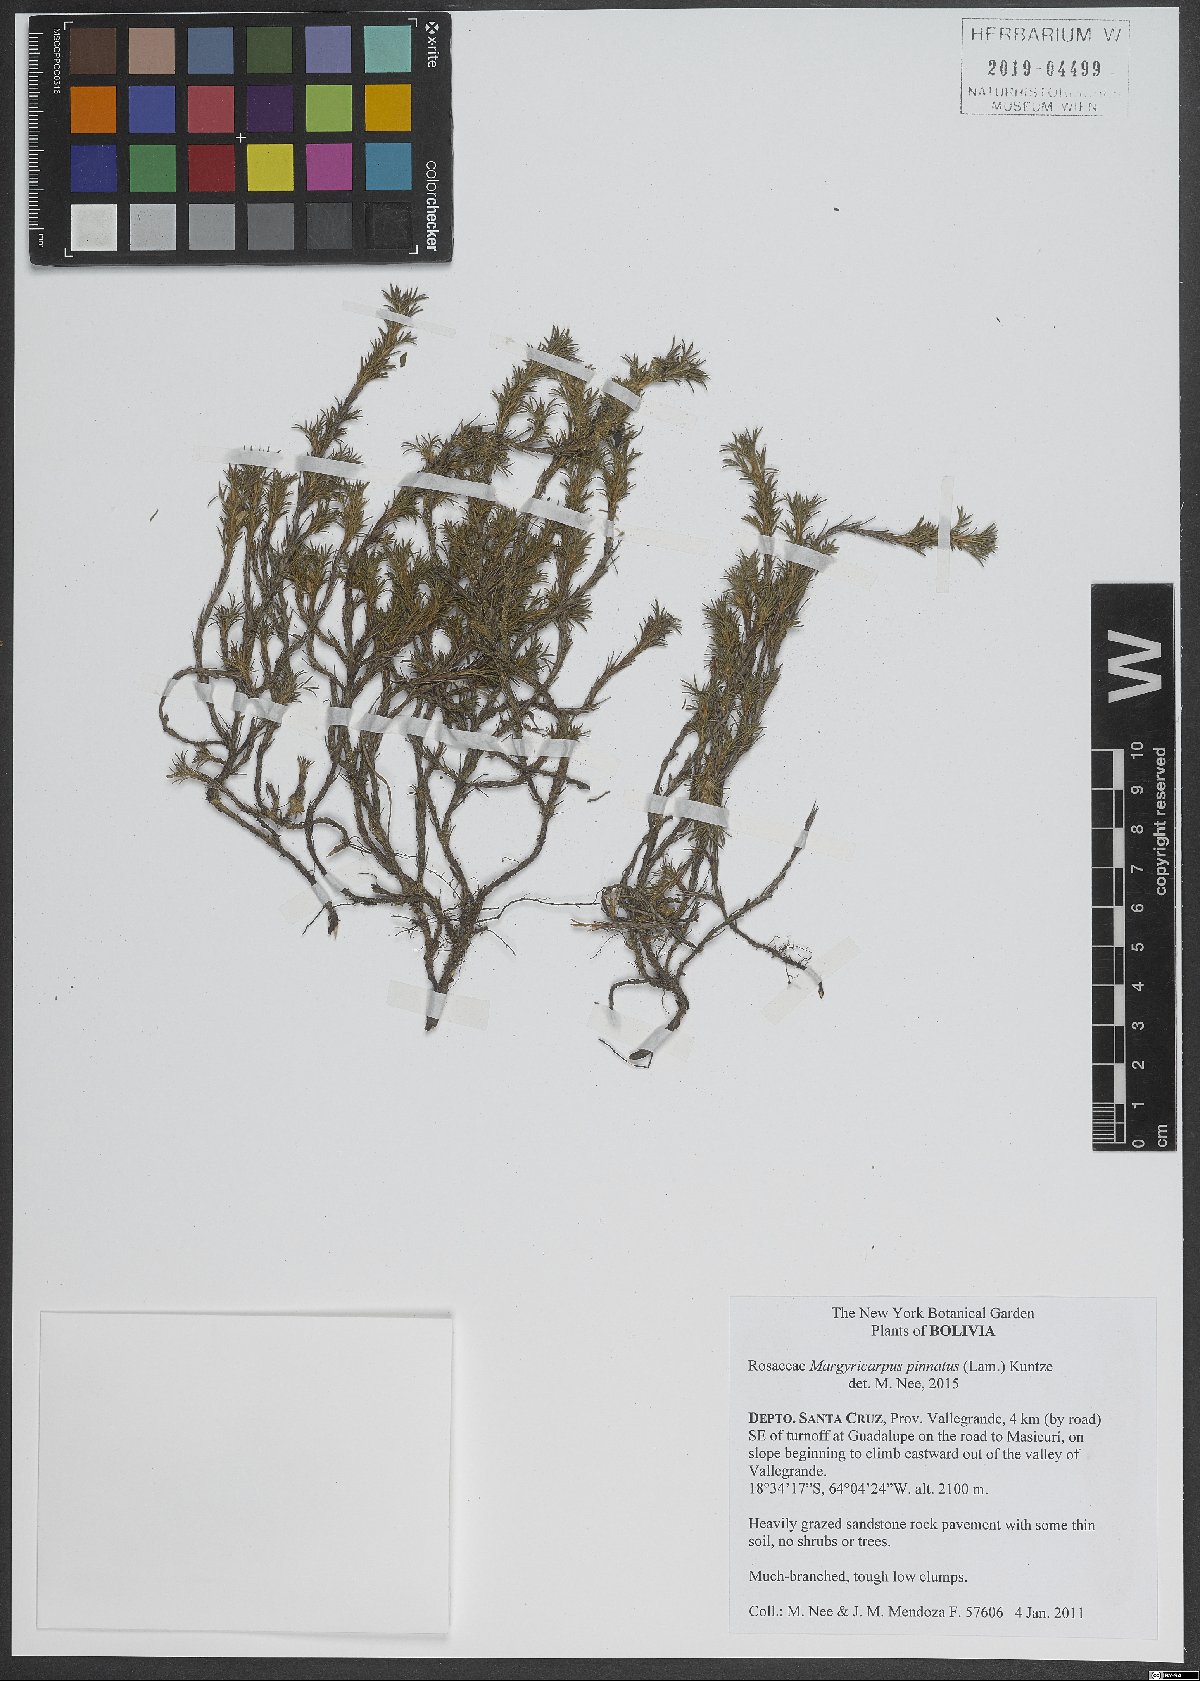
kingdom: Plantae
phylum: Tracheophyta
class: Magnoliopsida
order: Rosales
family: Rosaceae
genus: Margyricarpus
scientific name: Margyricarpus pinnatus
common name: Pearlfruit
